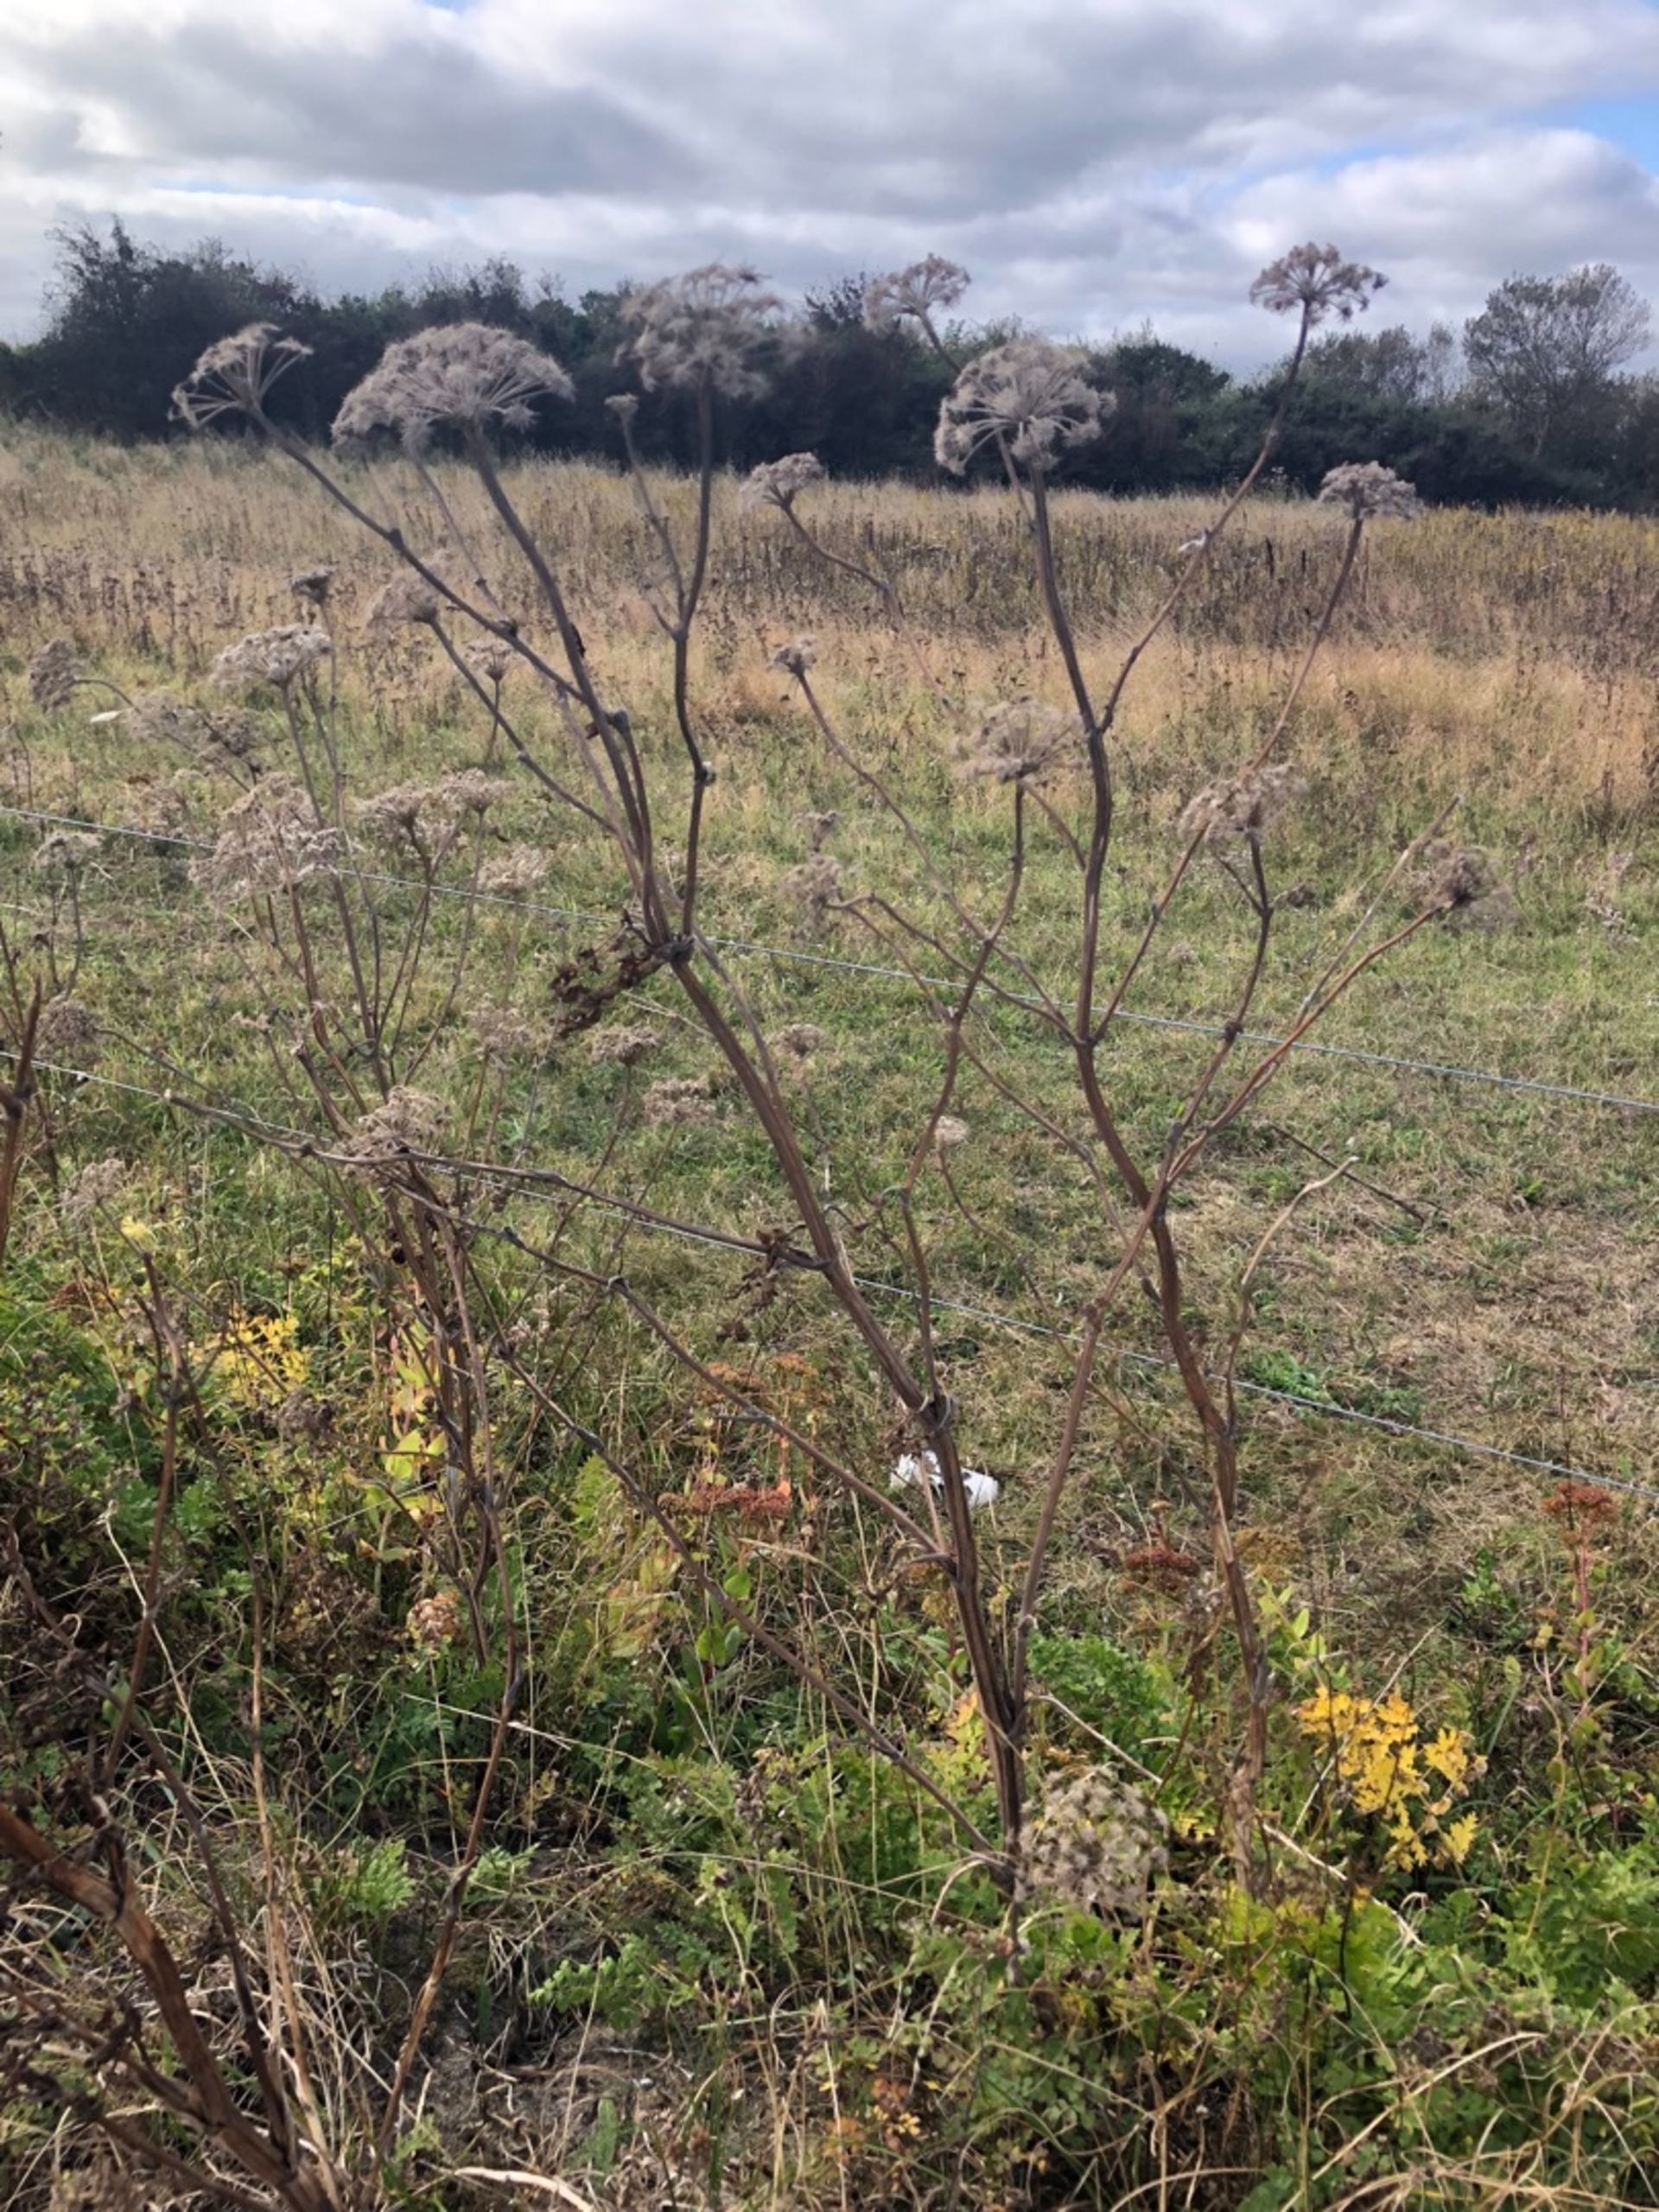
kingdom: Plantae
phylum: Tracheophyta
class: Magnoliopsida
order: Apiales
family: Apiaceae
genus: Seseli
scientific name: Seseli libanotis
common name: Hjorterod
